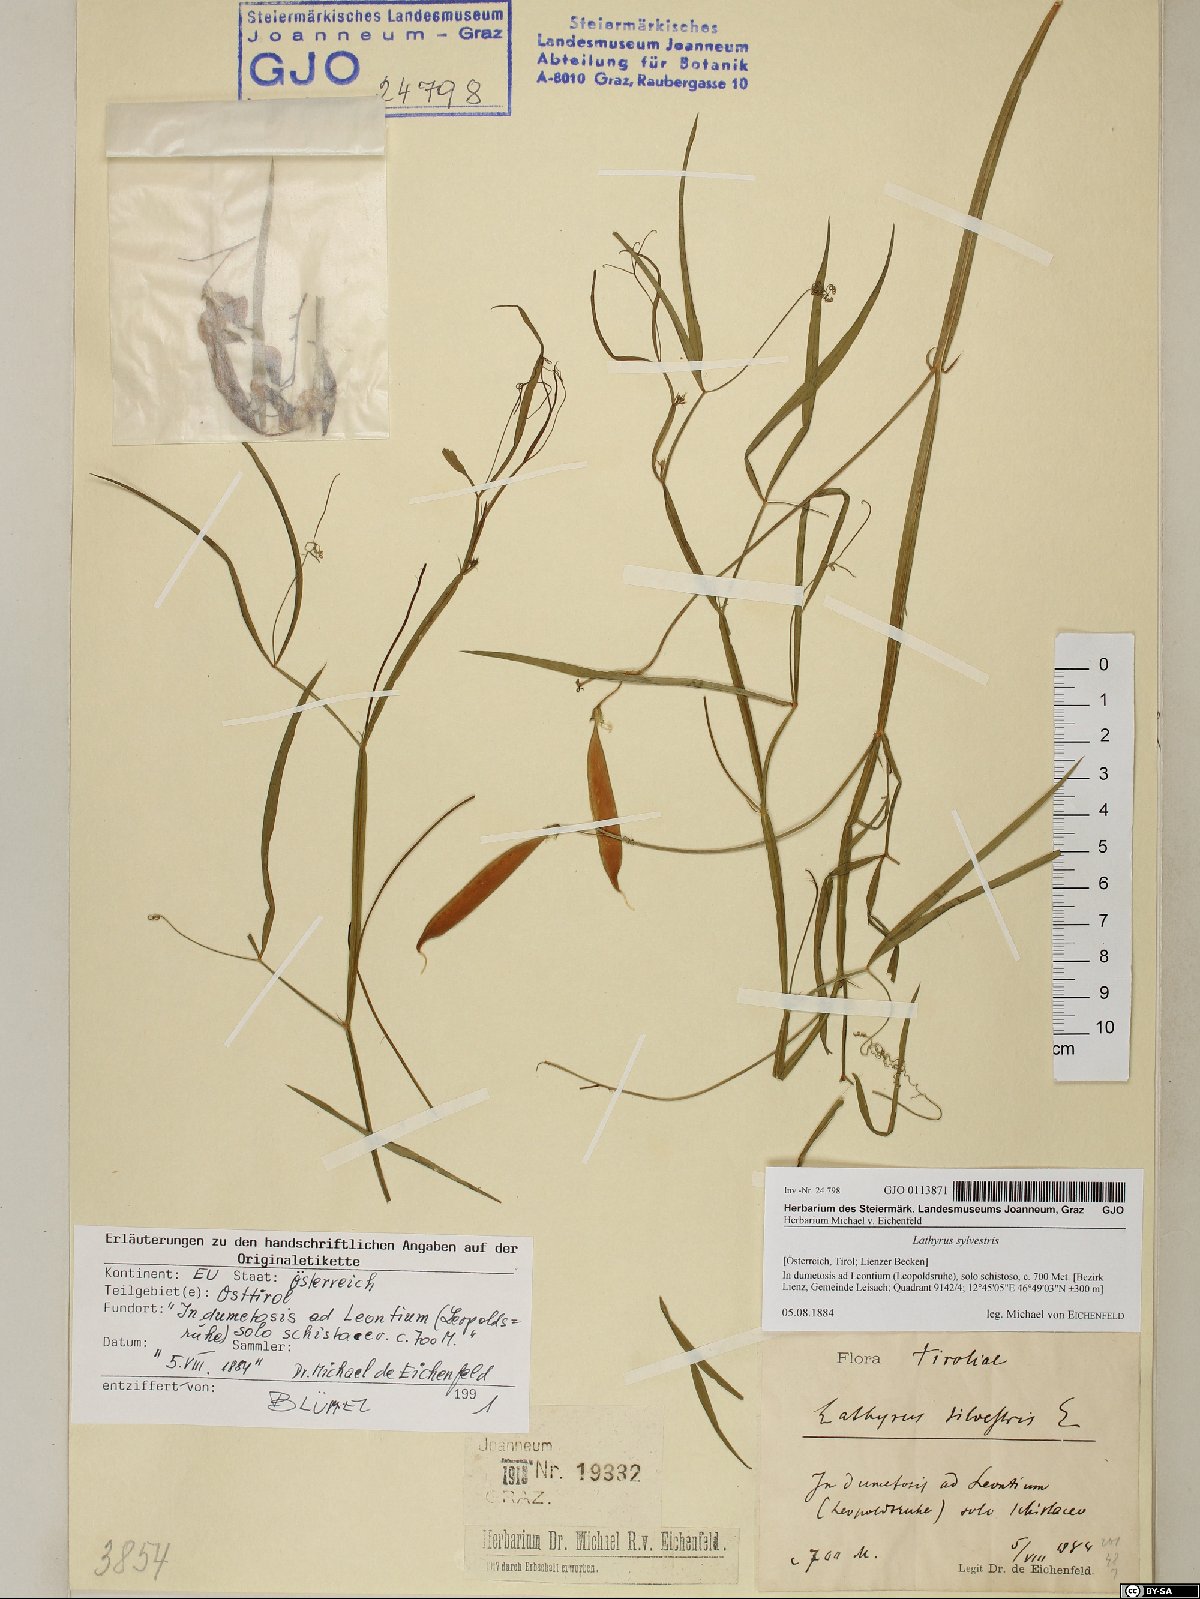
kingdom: Plantae
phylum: Tracheophyta
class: Magnoliopsida
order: Fabales
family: Fabaceae
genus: Lathyrus
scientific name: Lathyrus sylvestris
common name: Flat pea
